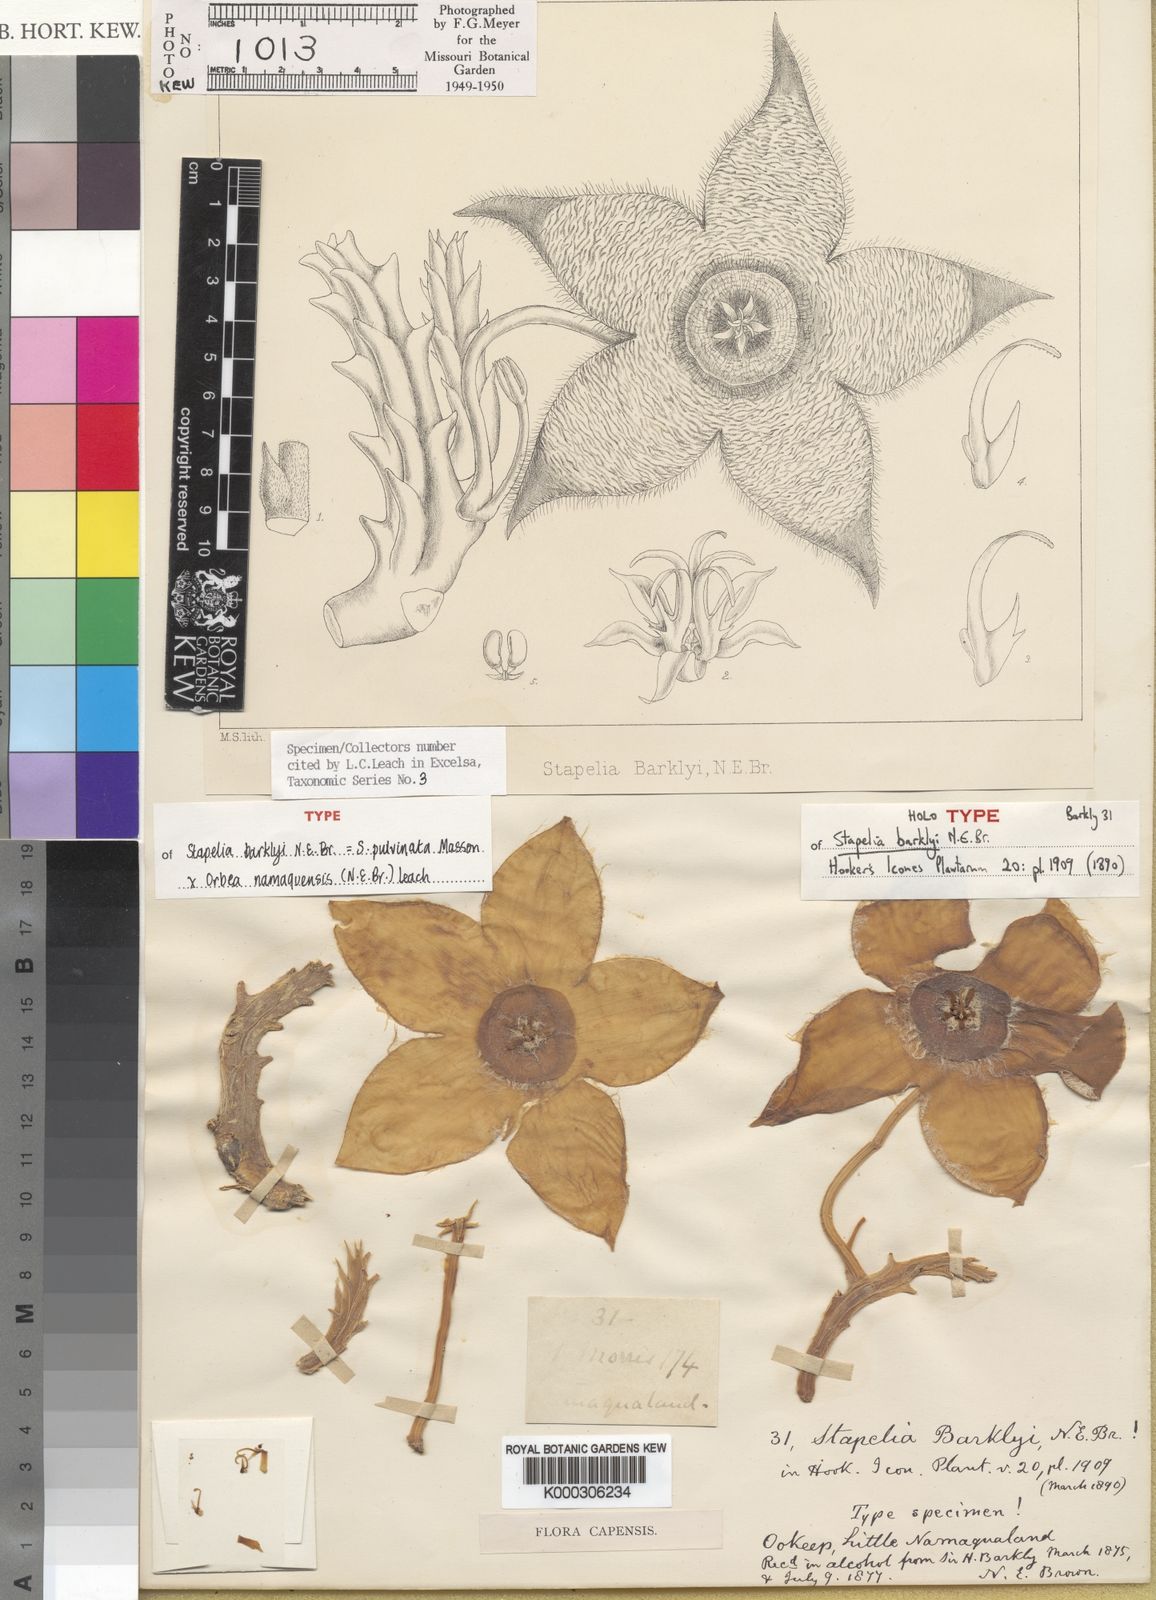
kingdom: Plantae
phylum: Tracheophyta
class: Magnoliopsida
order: Gentianales
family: Apocynaceae
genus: Orbelia
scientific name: Orbelia barklyi
